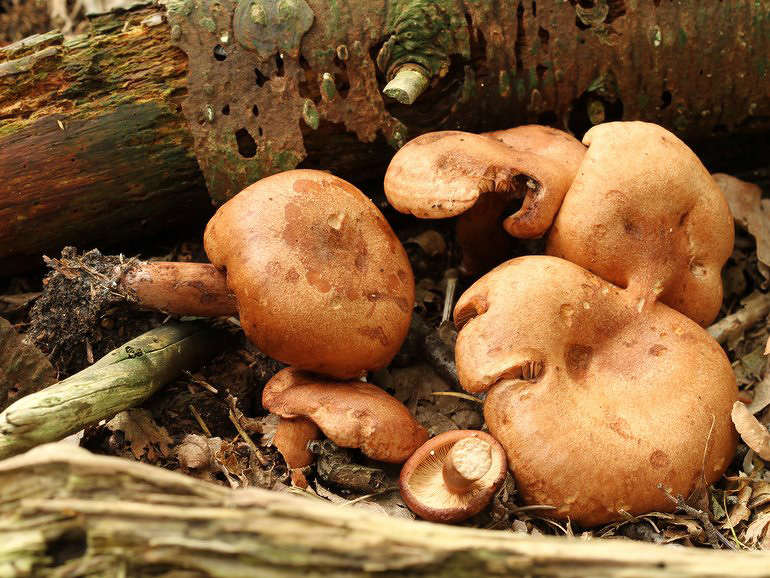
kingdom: Fungi
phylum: Basidiomycota
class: Agaricomycetes
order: Russulales
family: Russulaceae
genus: Lactarius
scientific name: Lactarius quietus
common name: ege-mælkehat
